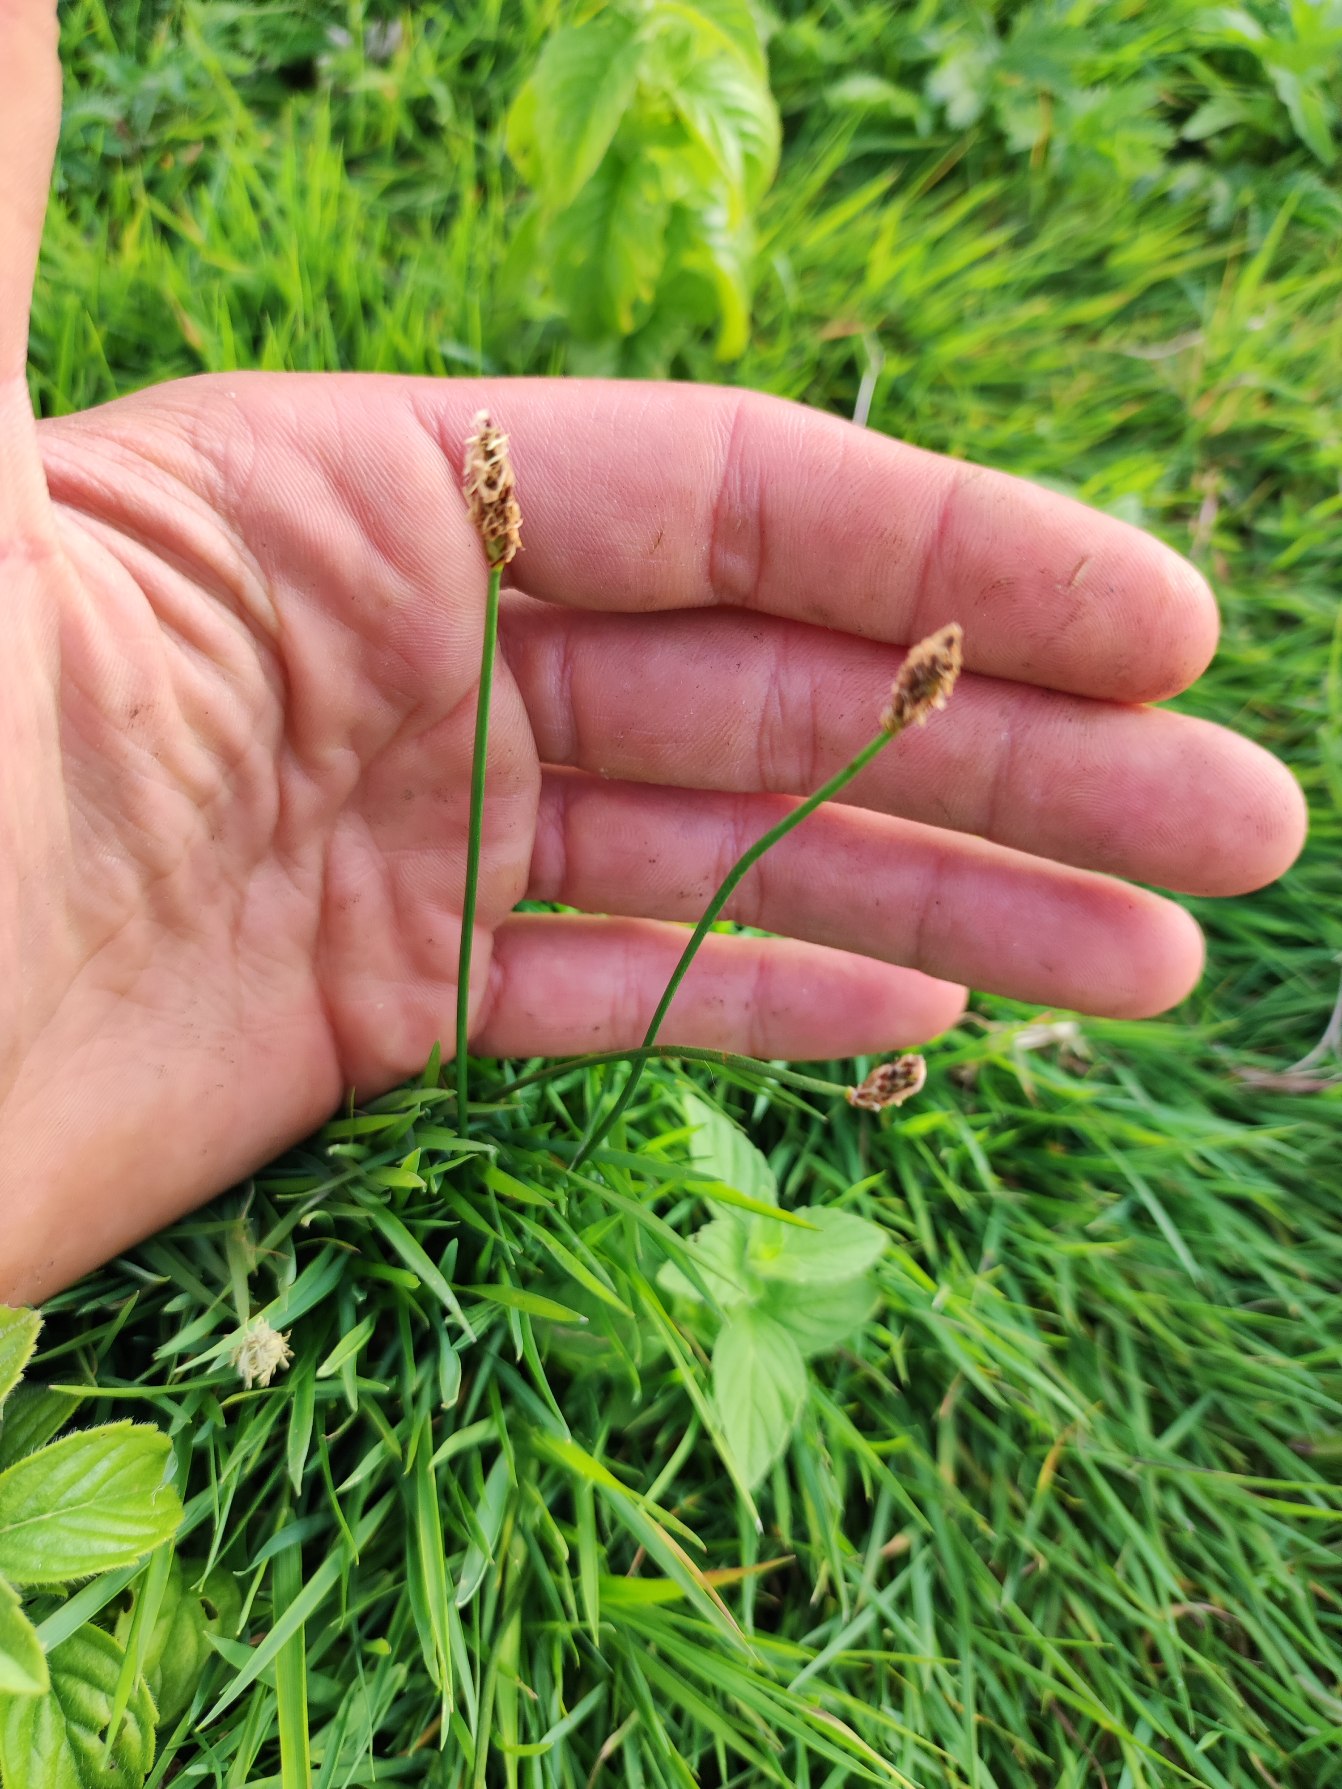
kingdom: Plantae
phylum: Tracheophyta
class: Liliopsida
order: Poales
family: Cyperaceae
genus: Eleocharis
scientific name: Eleocharis palustris
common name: Almindelig sumpstrå
